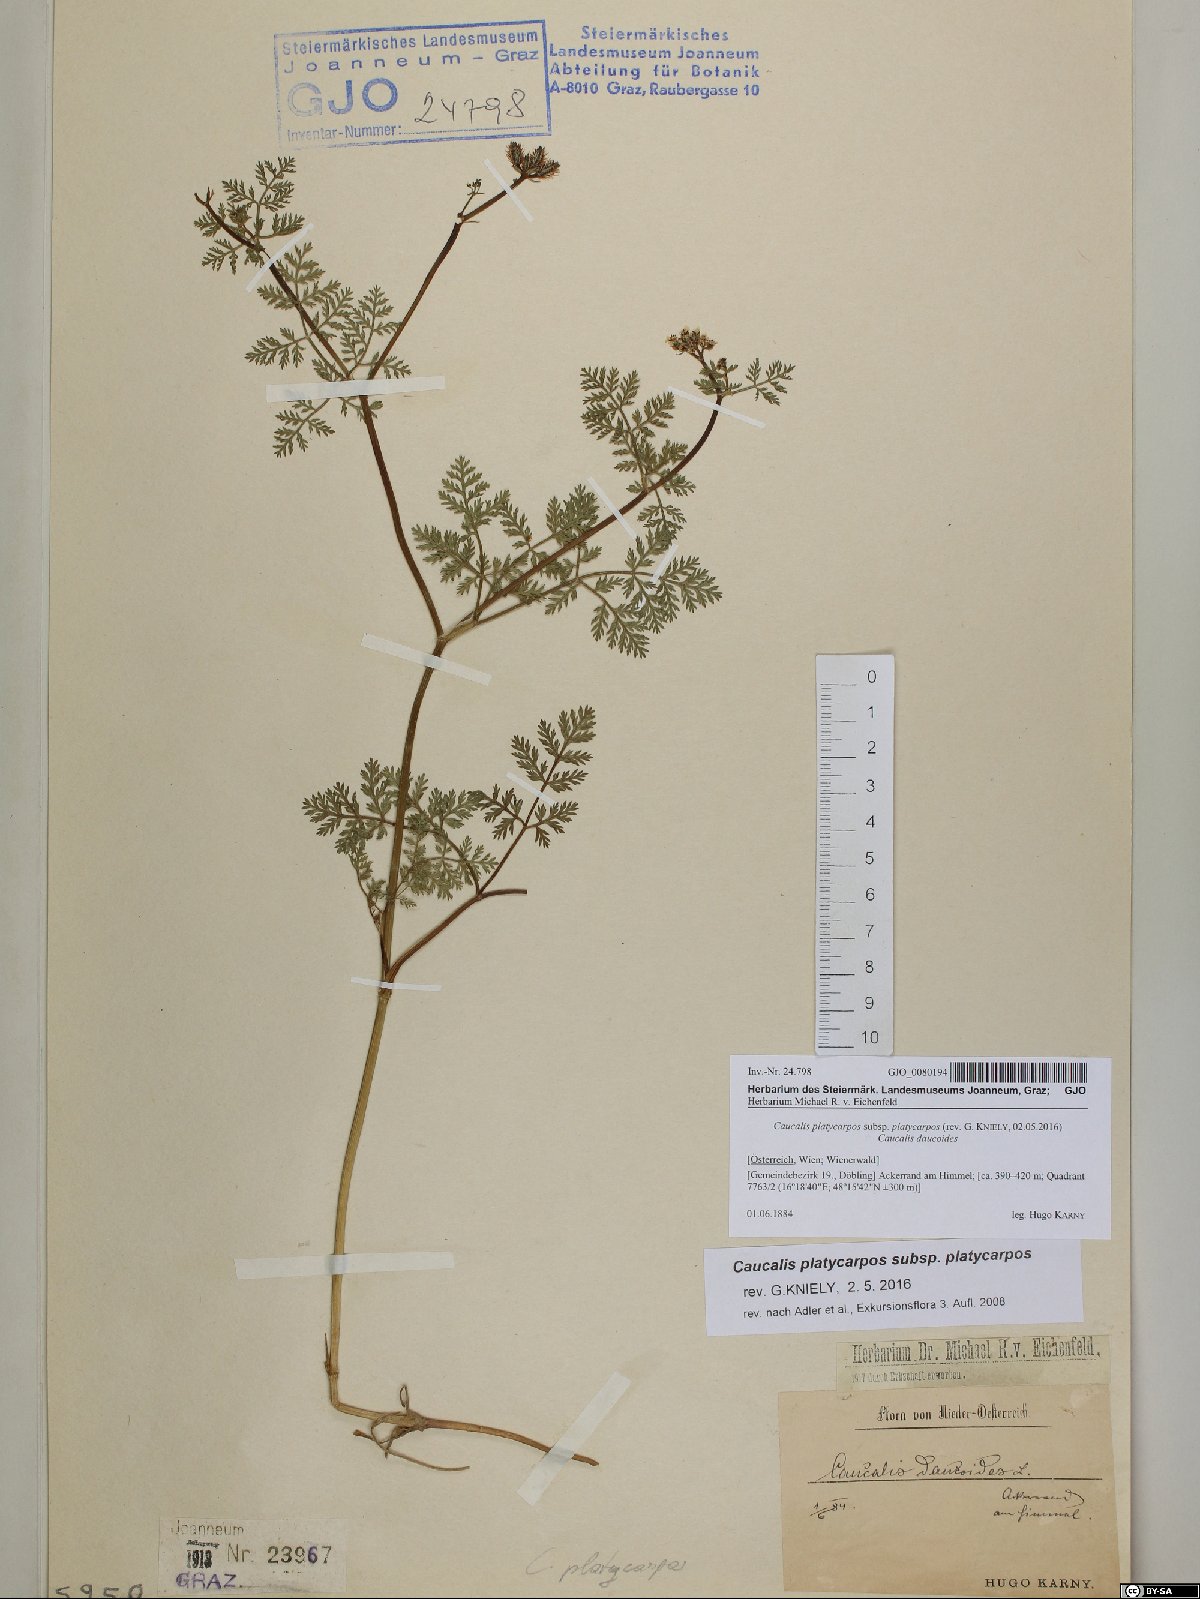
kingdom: Plantae
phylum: Tracheophyta
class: Magnoliopsida
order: Apiales
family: Apiaceae
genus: Caucalis
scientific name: Caucalis platycarpos
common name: Small bur-parsley
